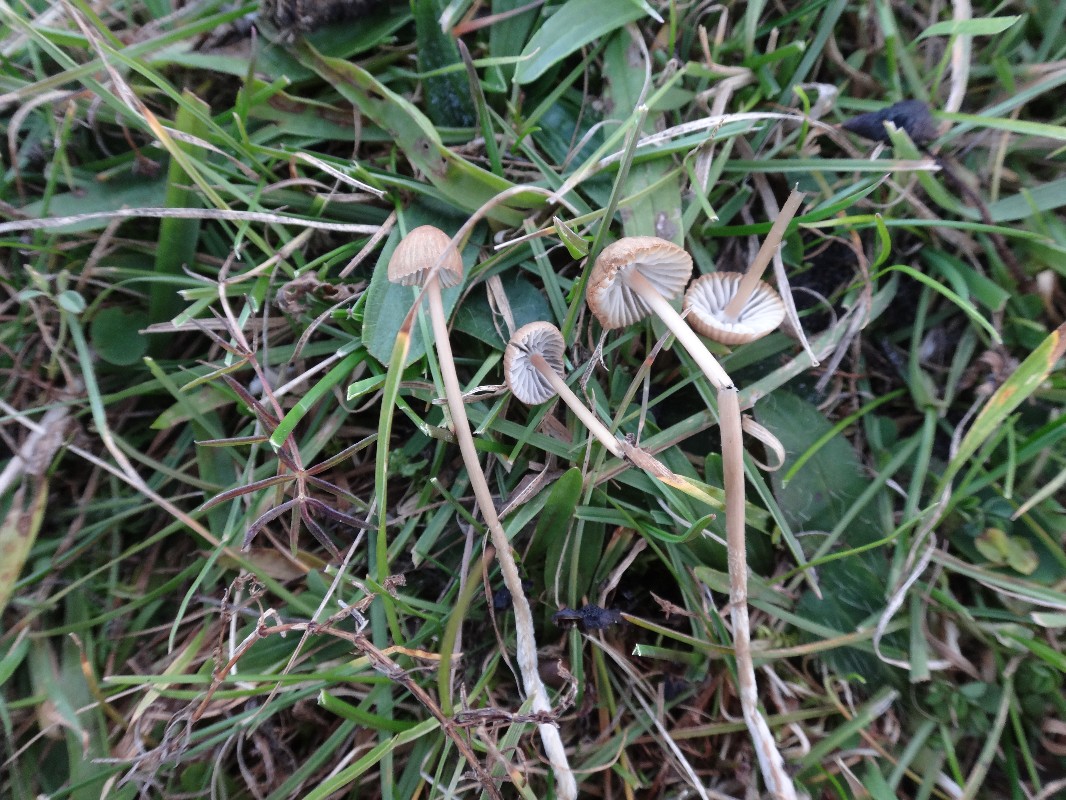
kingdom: Fungi
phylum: Basidiomycota
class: Agaricomycetes
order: Agaricales
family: Mycenaceae
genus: Mycena
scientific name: Mycena leptocephala
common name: klor-huesvamp
